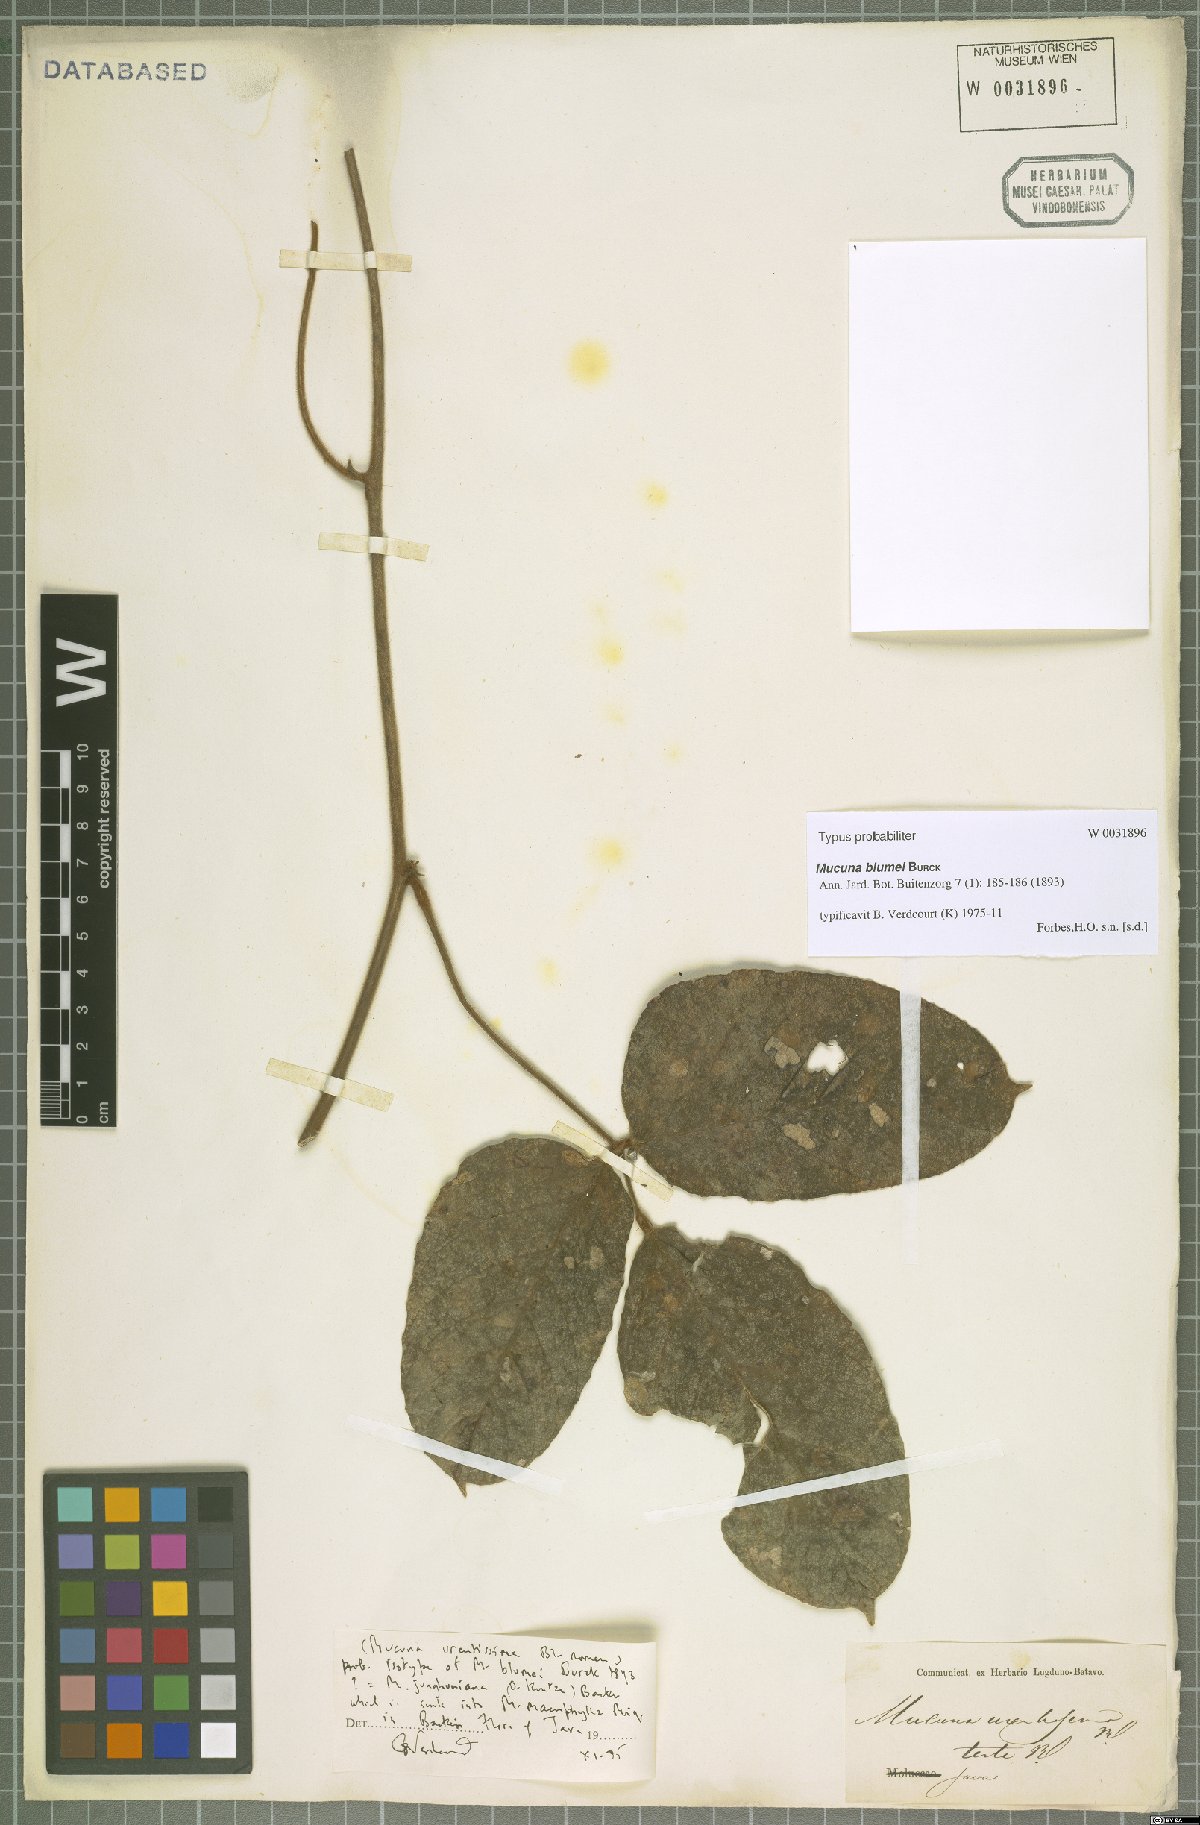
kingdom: Plantae
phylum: Tracheophyta
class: Magnoliopsida
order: Fabales
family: Fabaceae
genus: Mucuna
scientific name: Mucuna macrophylla
